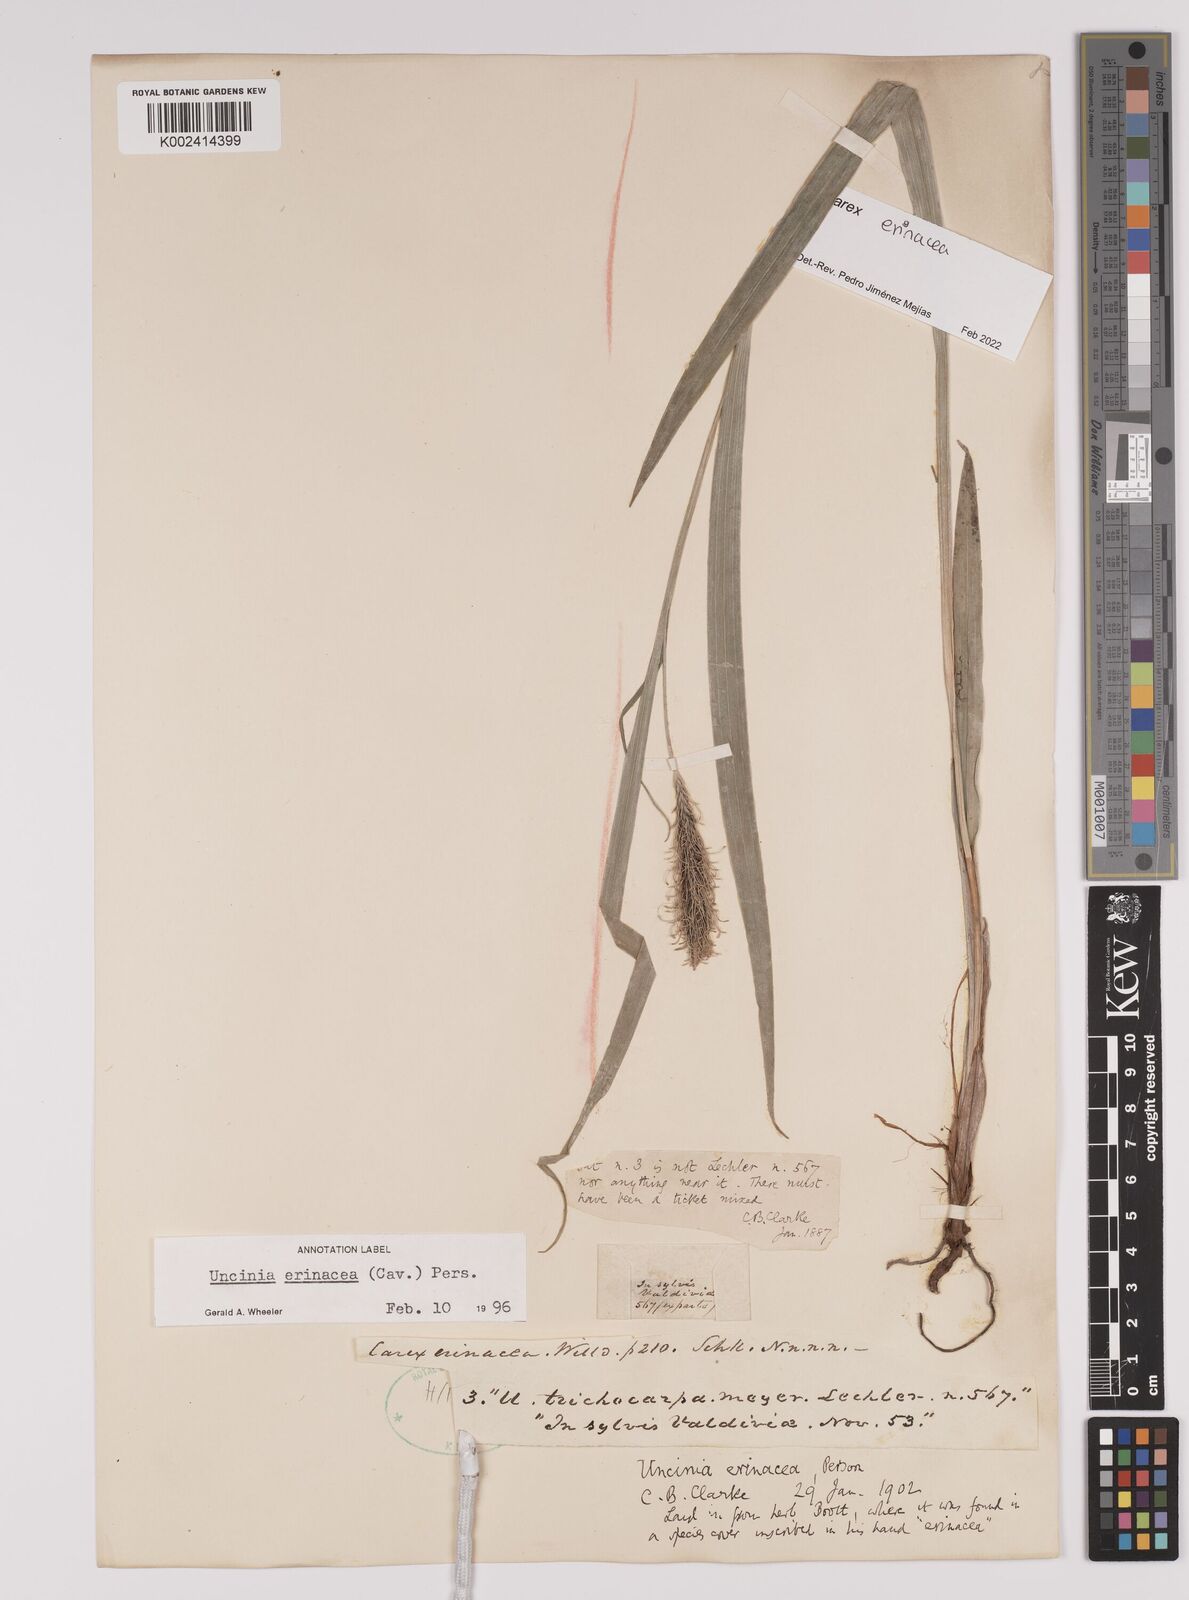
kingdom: Plantae
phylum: Tracheophyta
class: Liliopsida
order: Poales
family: Cyperaceae
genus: Carex
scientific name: Carex erinacea
